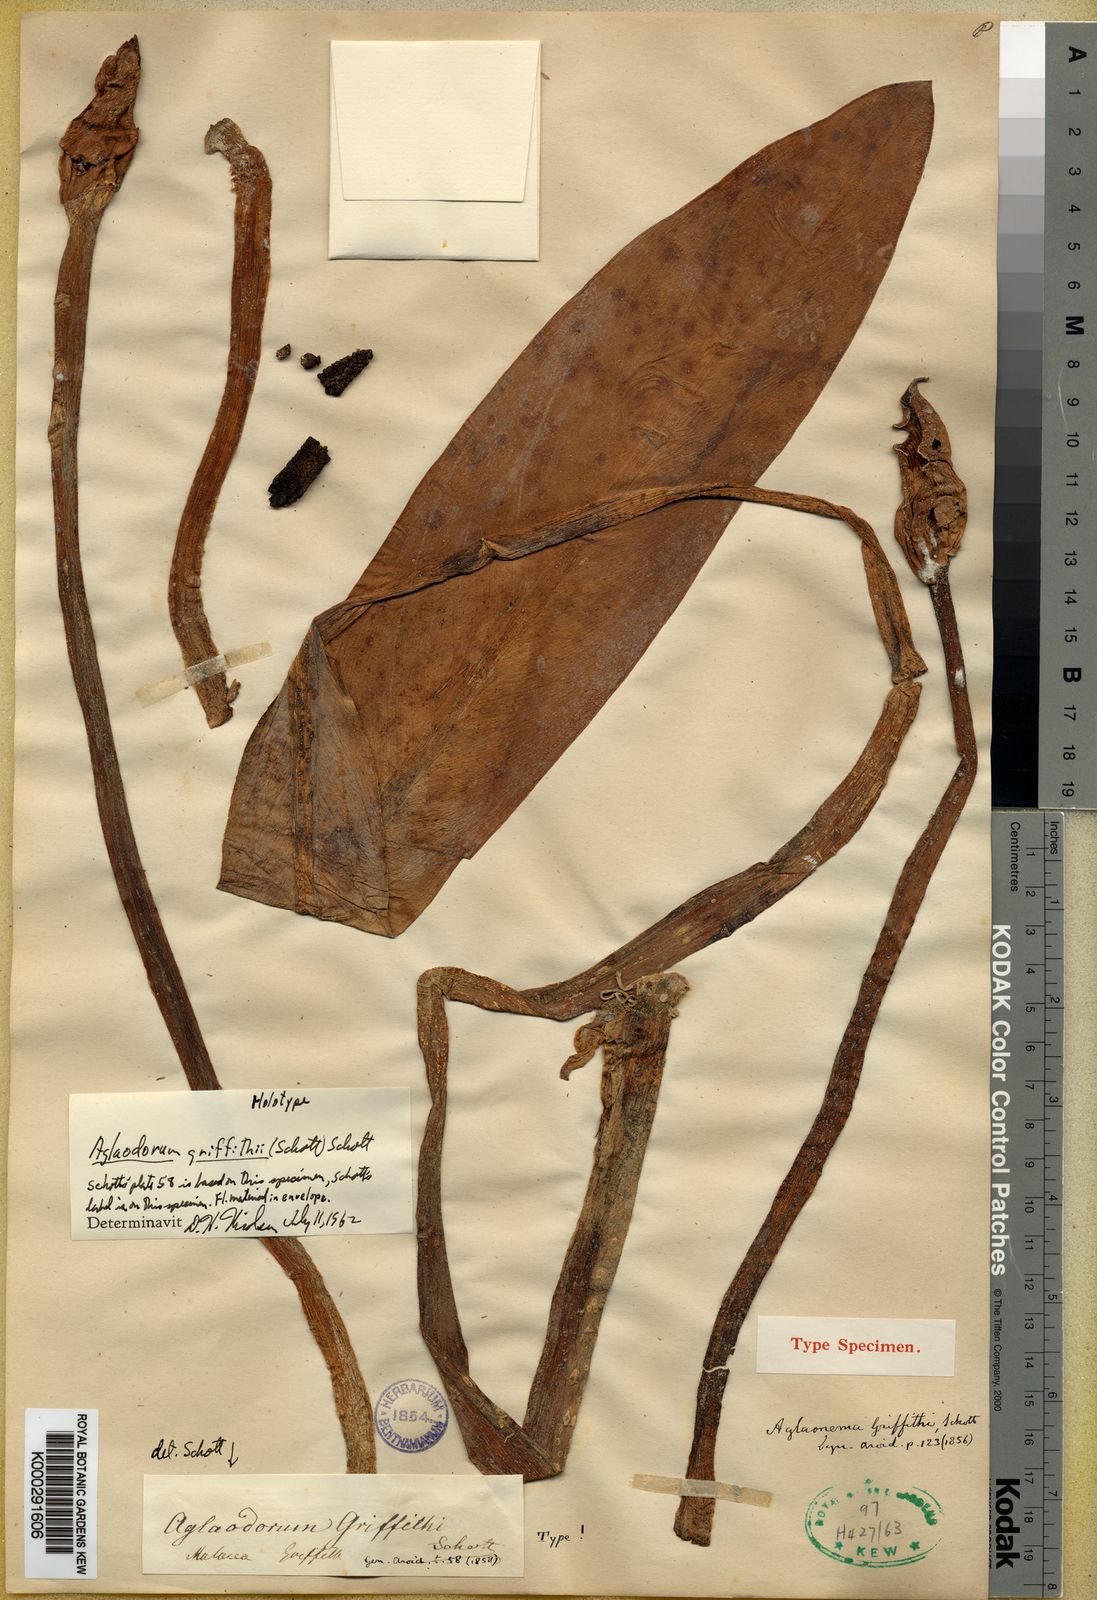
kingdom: Plantae
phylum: Tracheophyta
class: Liliopsida
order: Alismatales
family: Araceae
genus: Aglaodorum
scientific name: Aglaodorum griffithii
